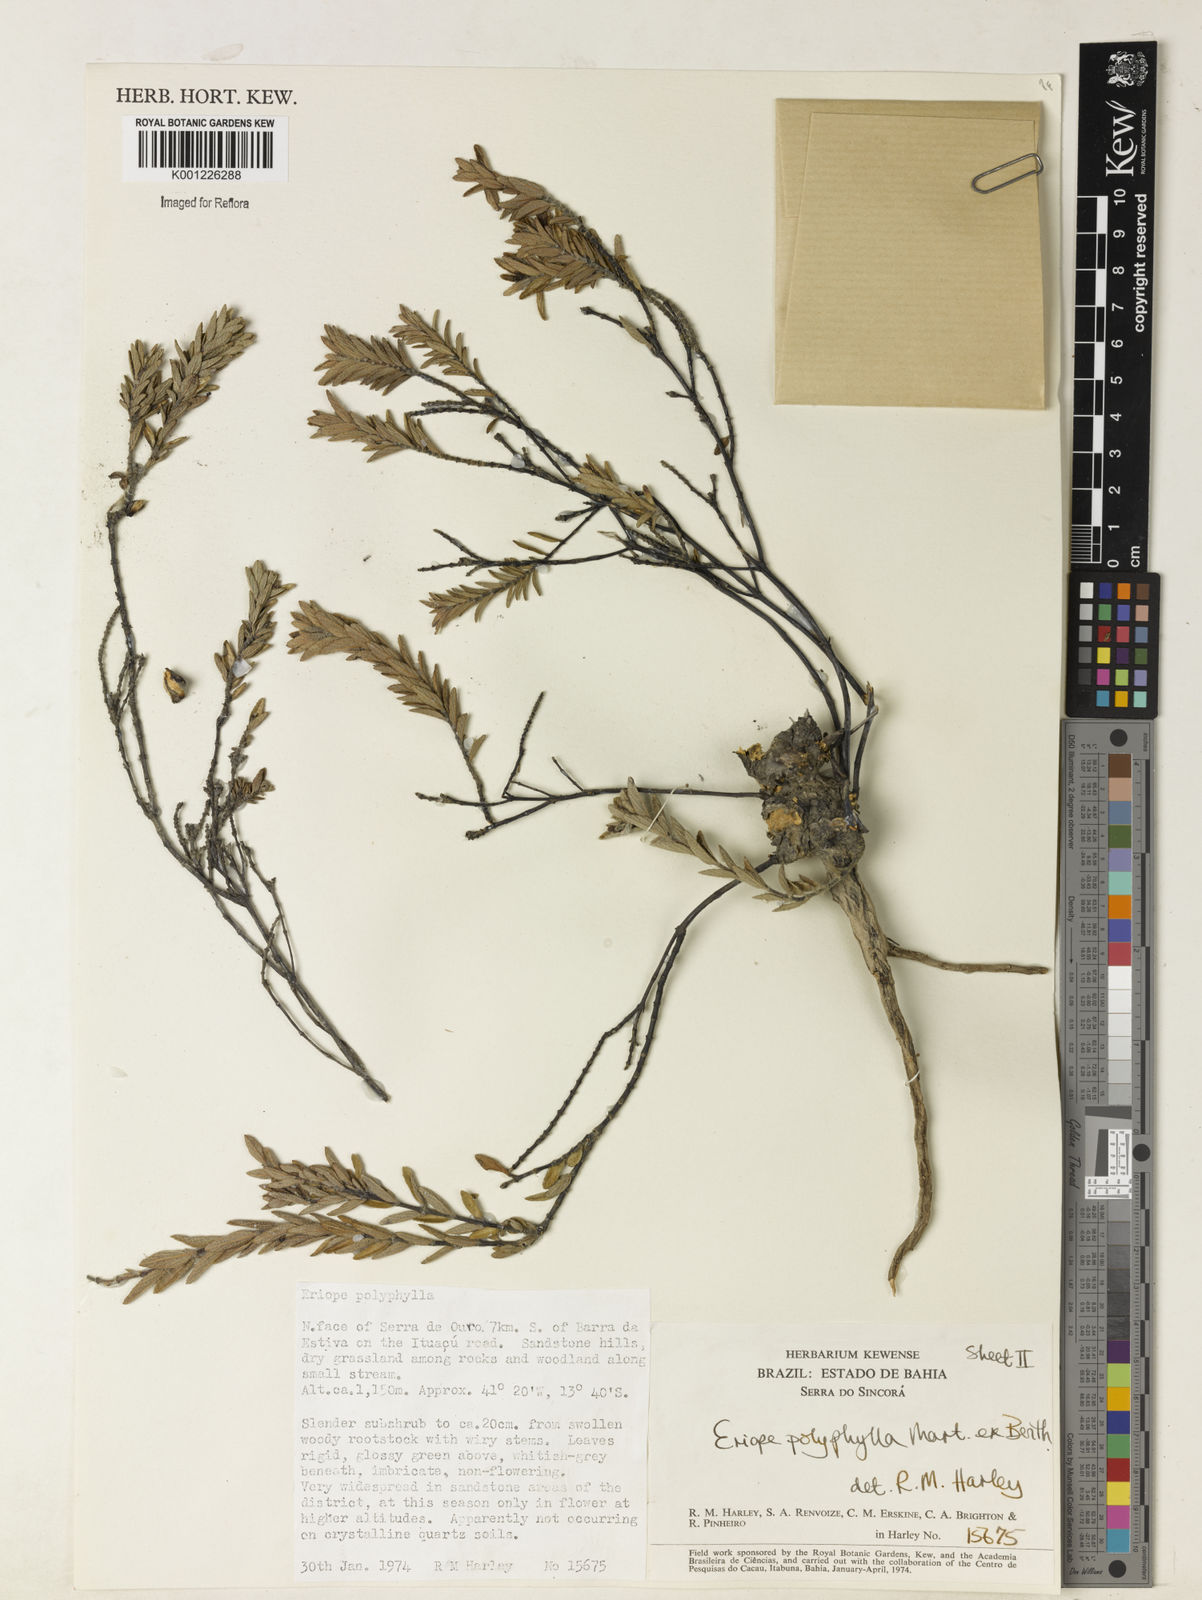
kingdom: Plantae
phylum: Tracheophyta
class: Magnoliopsida
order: Lamiales
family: Lamiaceae
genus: Eriope
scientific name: Eriope polyphylla
